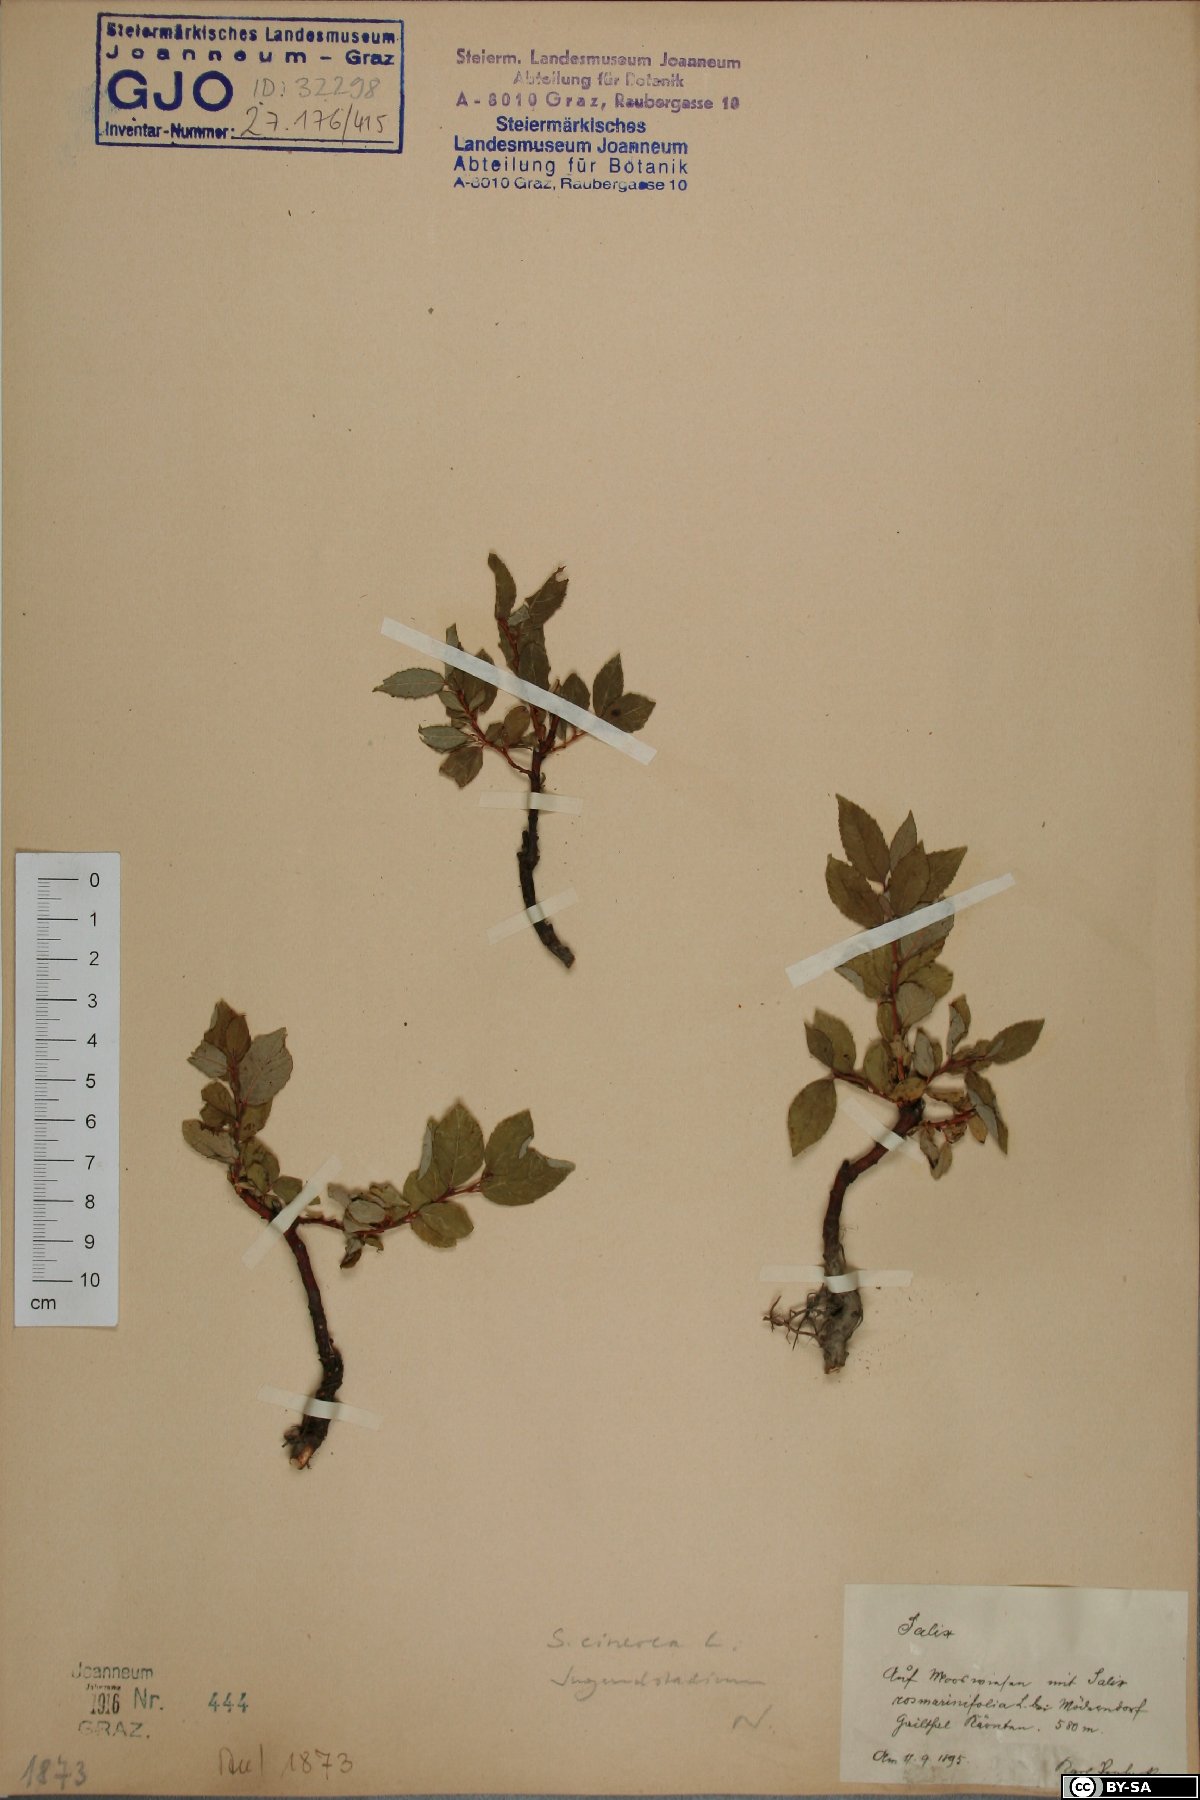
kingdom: Plantae
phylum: Tracheophyta
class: Magnoliopsida
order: Malpighiales
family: Salicaceae
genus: Salix
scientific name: Salix
